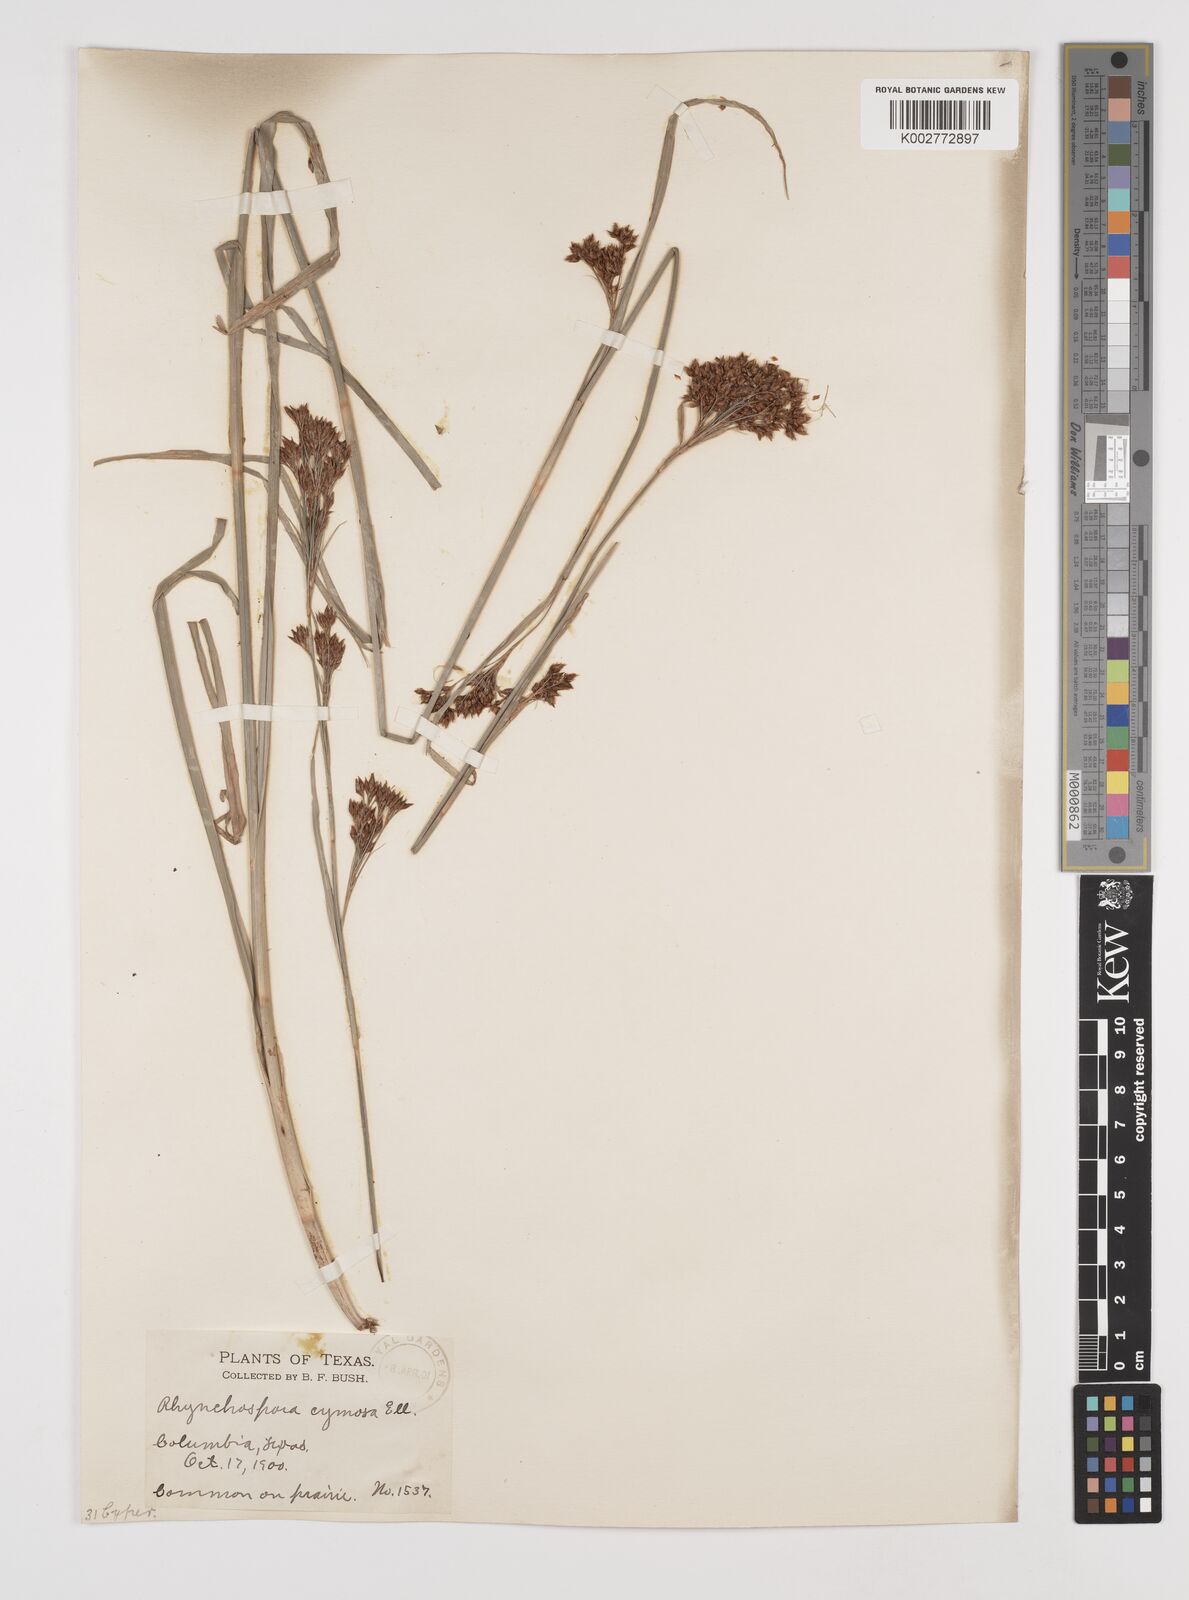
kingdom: Plantae
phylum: Tracheophyta
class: Liliopsida
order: Poales
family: Cyperaceae
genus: Scirpus
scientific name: Scirpus polyphyllus
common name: Leafy bulrush
